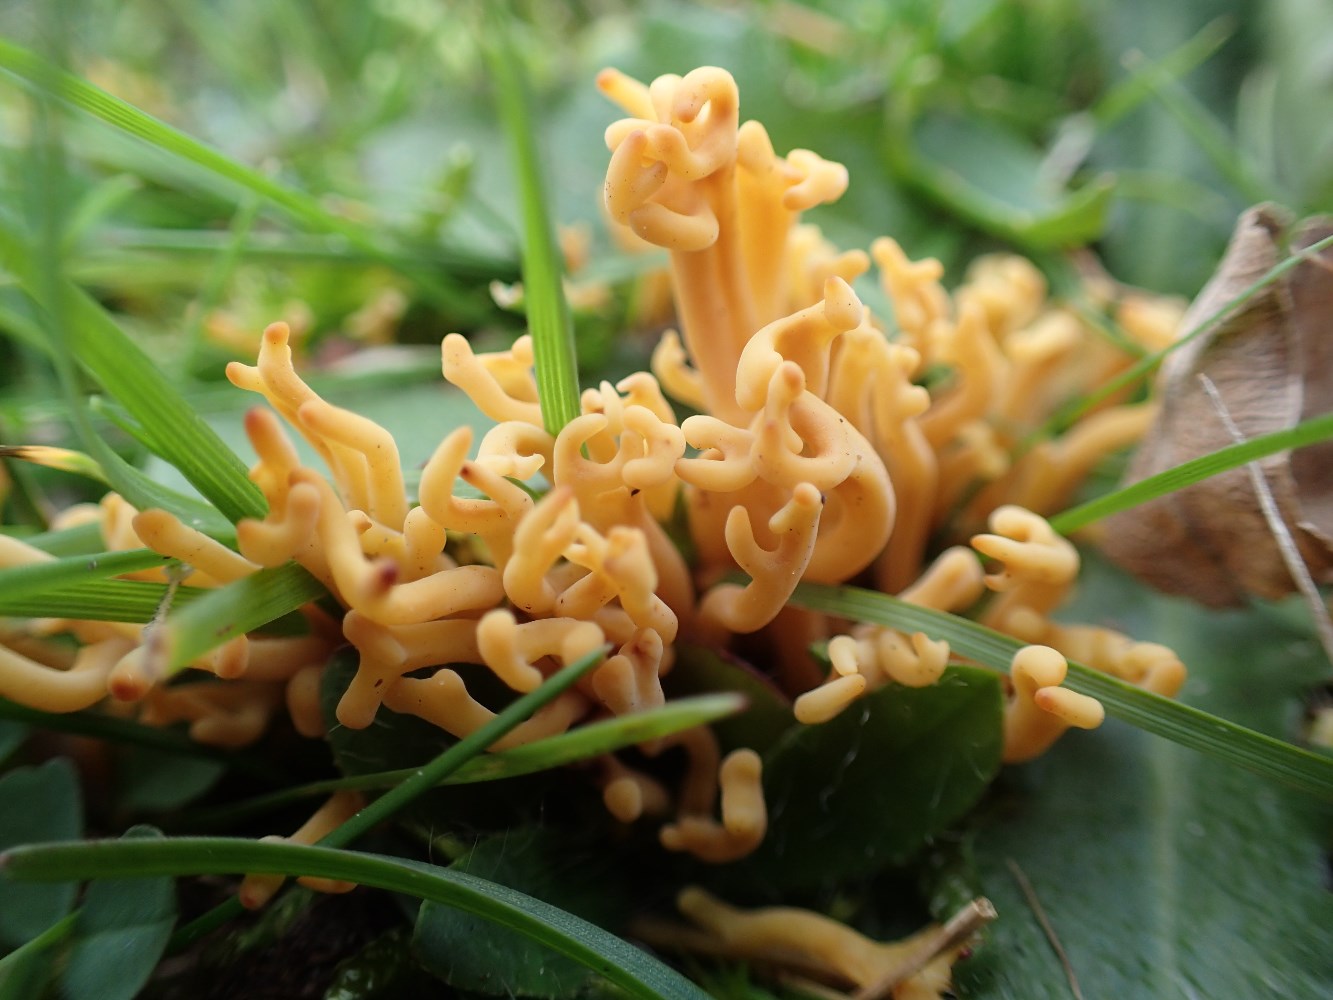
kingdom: Fungi
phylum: Basidiomycota
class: Agaricomycetes
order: Agaricales
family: Clavariaceae
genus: Clavulinopsis
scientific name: Clavulinopsis corniculata
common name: eng-køllesvamp
